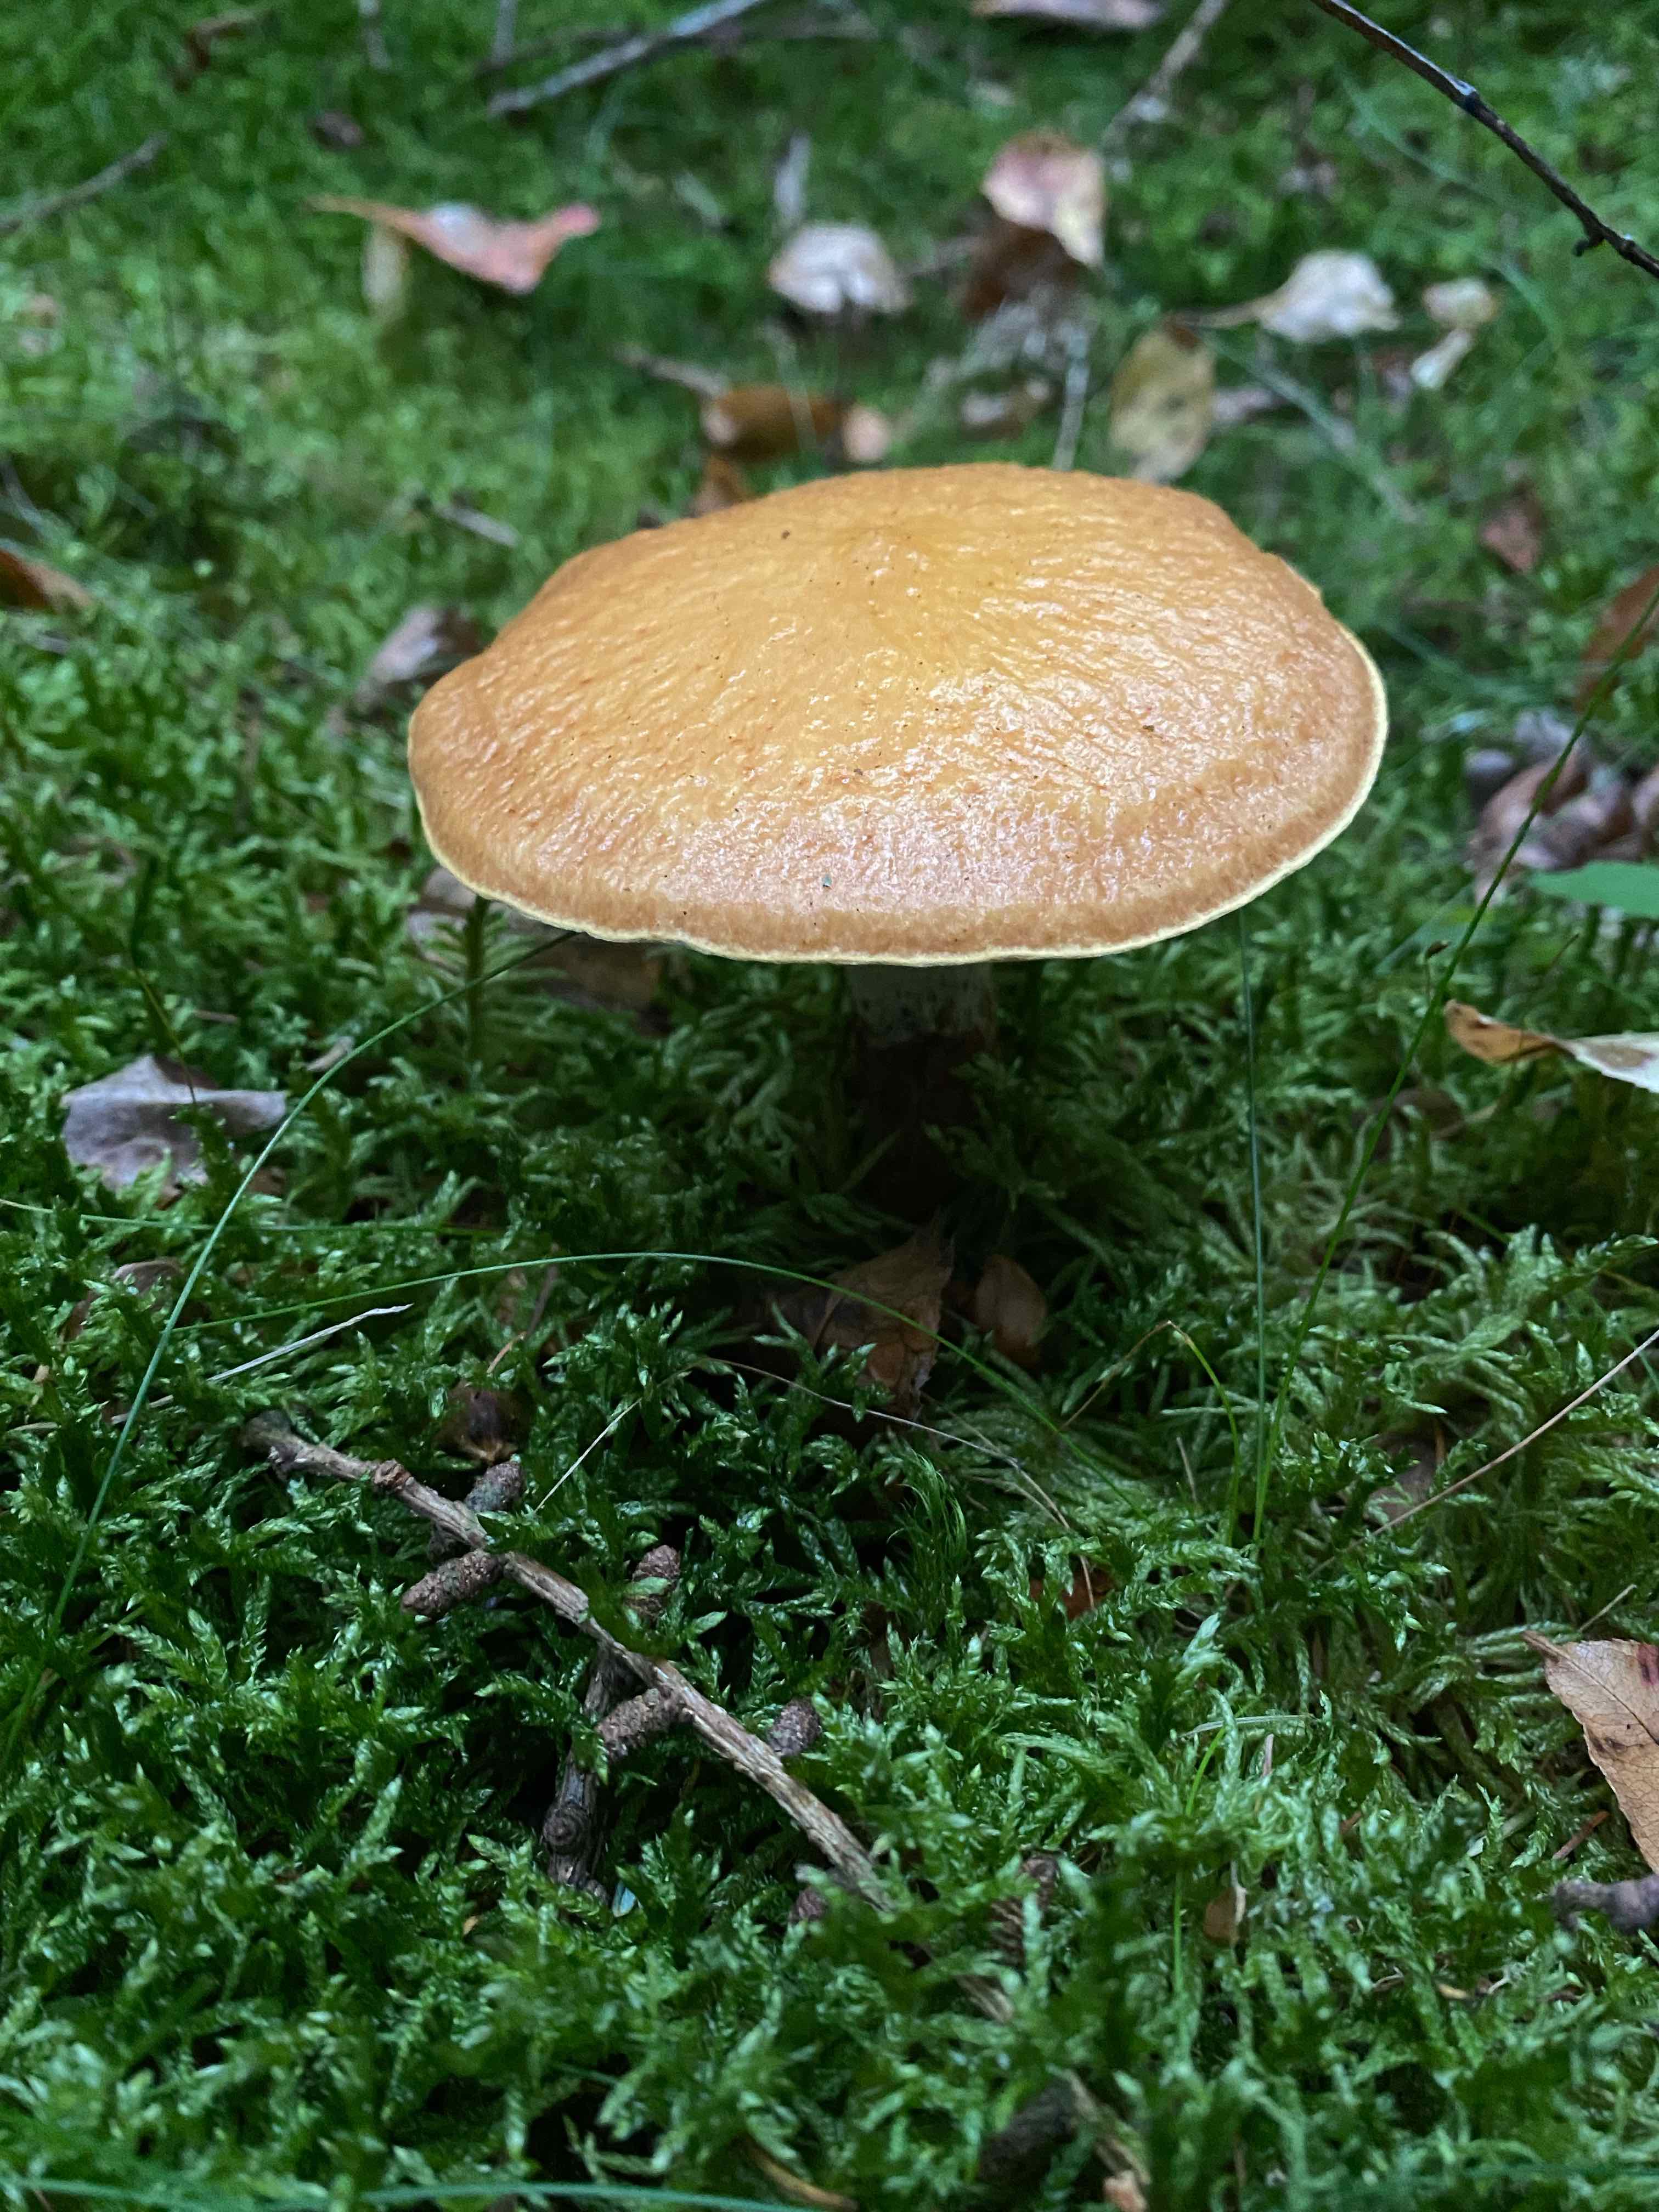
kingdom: Fungi
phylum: Basidiomycota
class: Agaricomycetes
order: Boletales
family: Suillaceae
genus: Suillus
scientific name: Suillus grevillei
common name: lærke-slimrørhat
